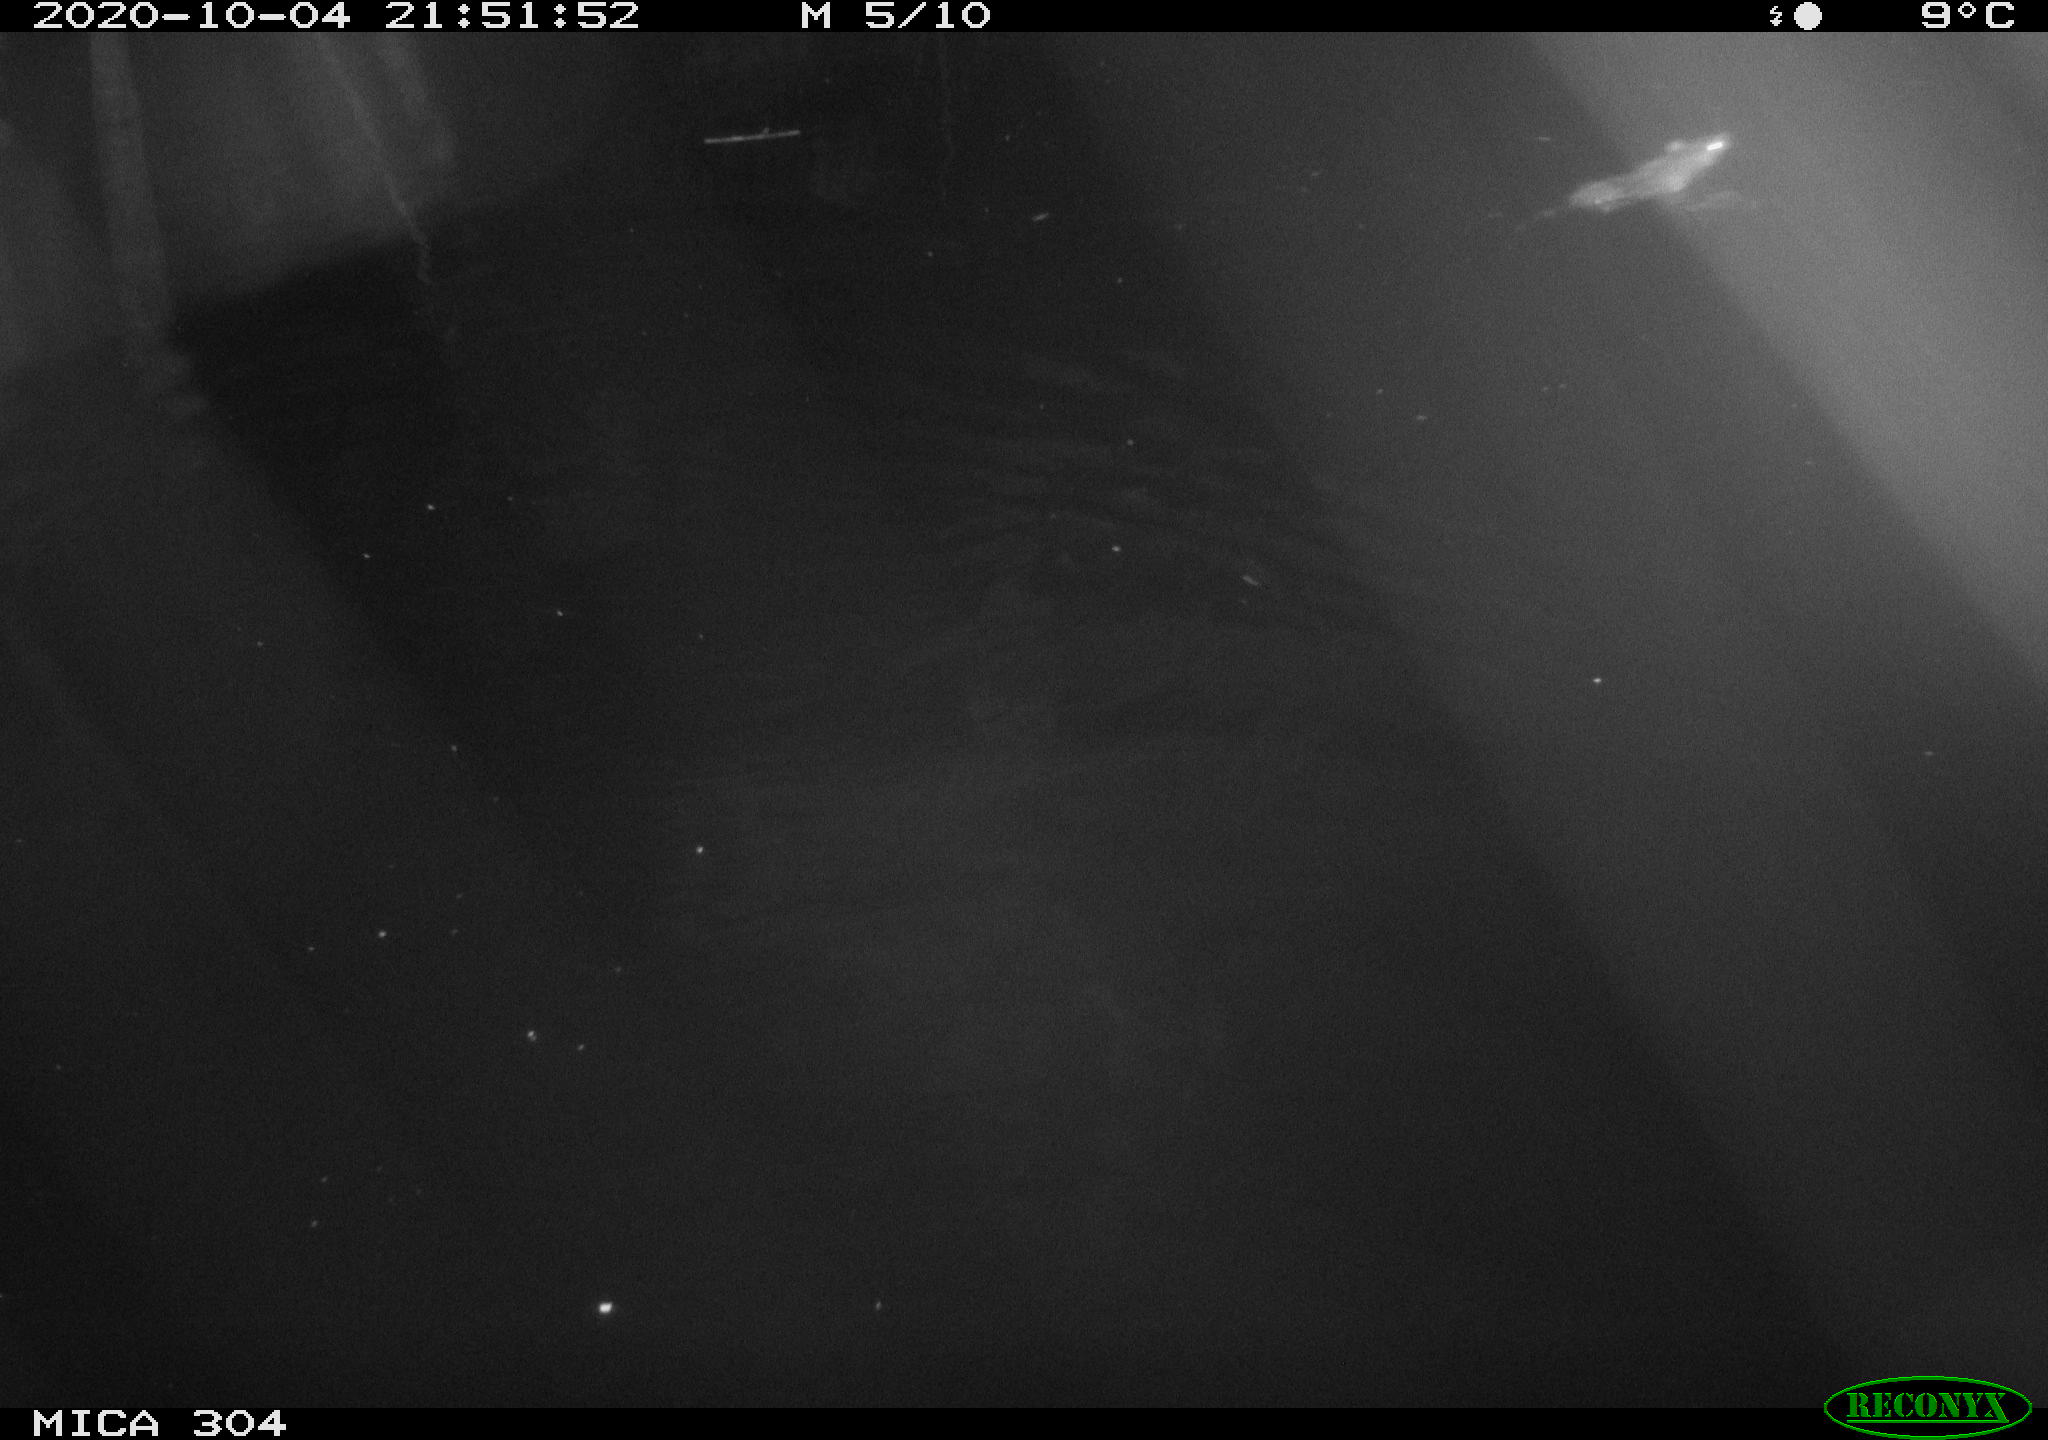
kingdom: Animalia
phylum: Chordata
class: Mammalia
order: Rodentia
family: Muridae
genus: Rattus
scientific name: Rattus norvegicus
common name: Brown rat
